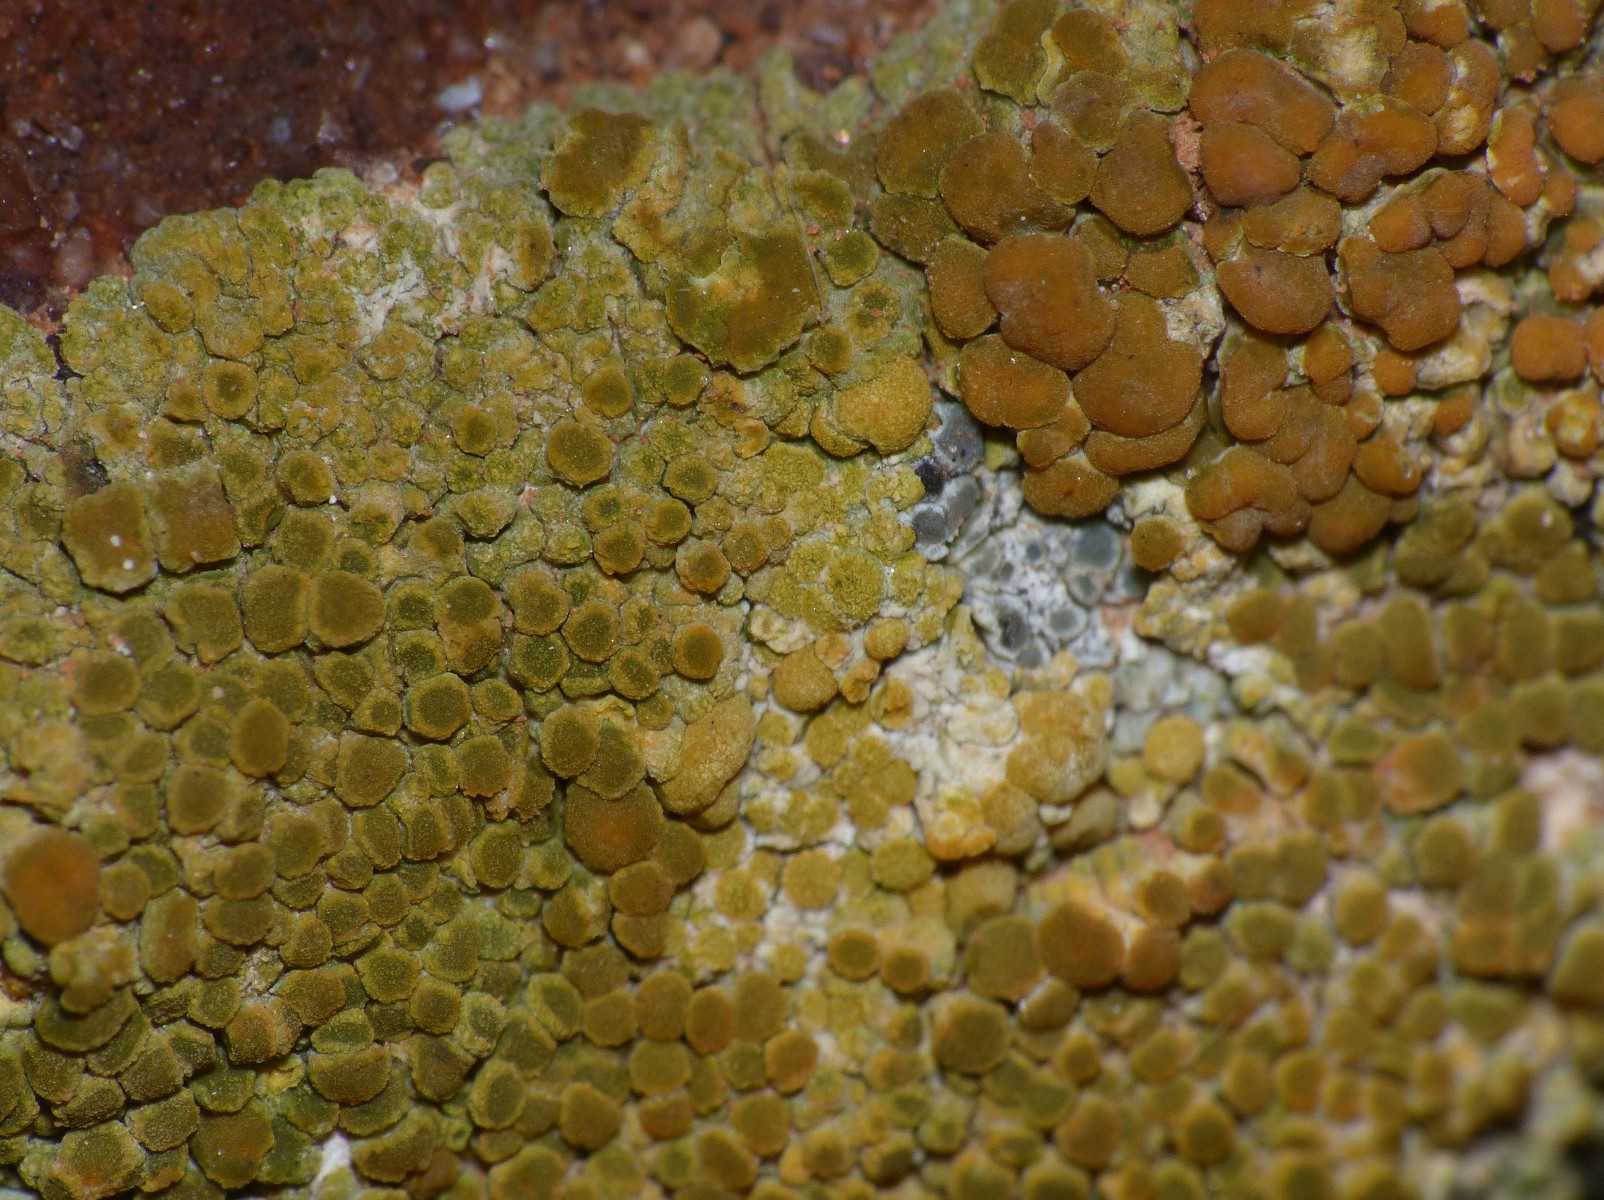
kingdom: Fungi
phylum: Ascomycota
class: Lecanoromycetes
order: Teloschistales
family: Teloschistaceae
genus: Calogaya
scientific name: Calogaya
